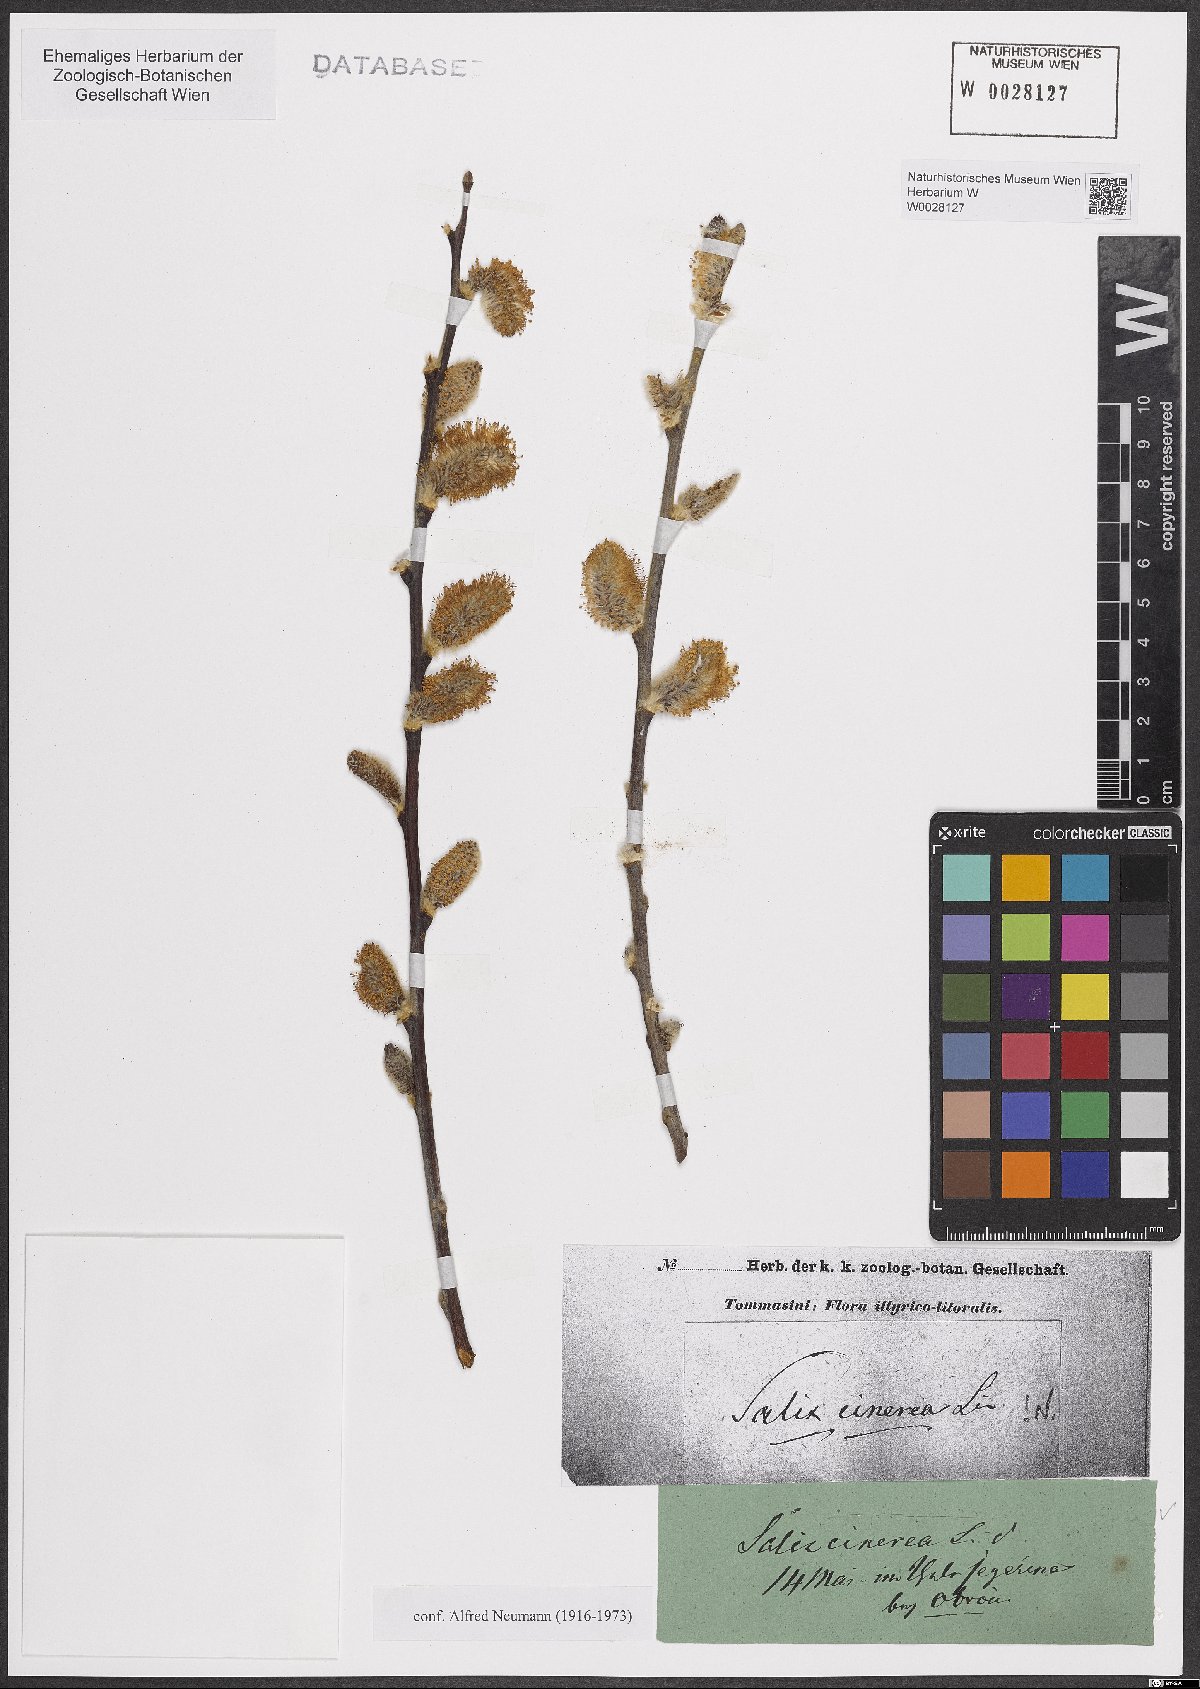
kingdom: Plantae
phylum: Tracheophyta
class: Magnoliopsida
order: Malpighiales
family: Salicaceae
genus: Salix
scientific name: Salix cinerea
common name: Common sallow
